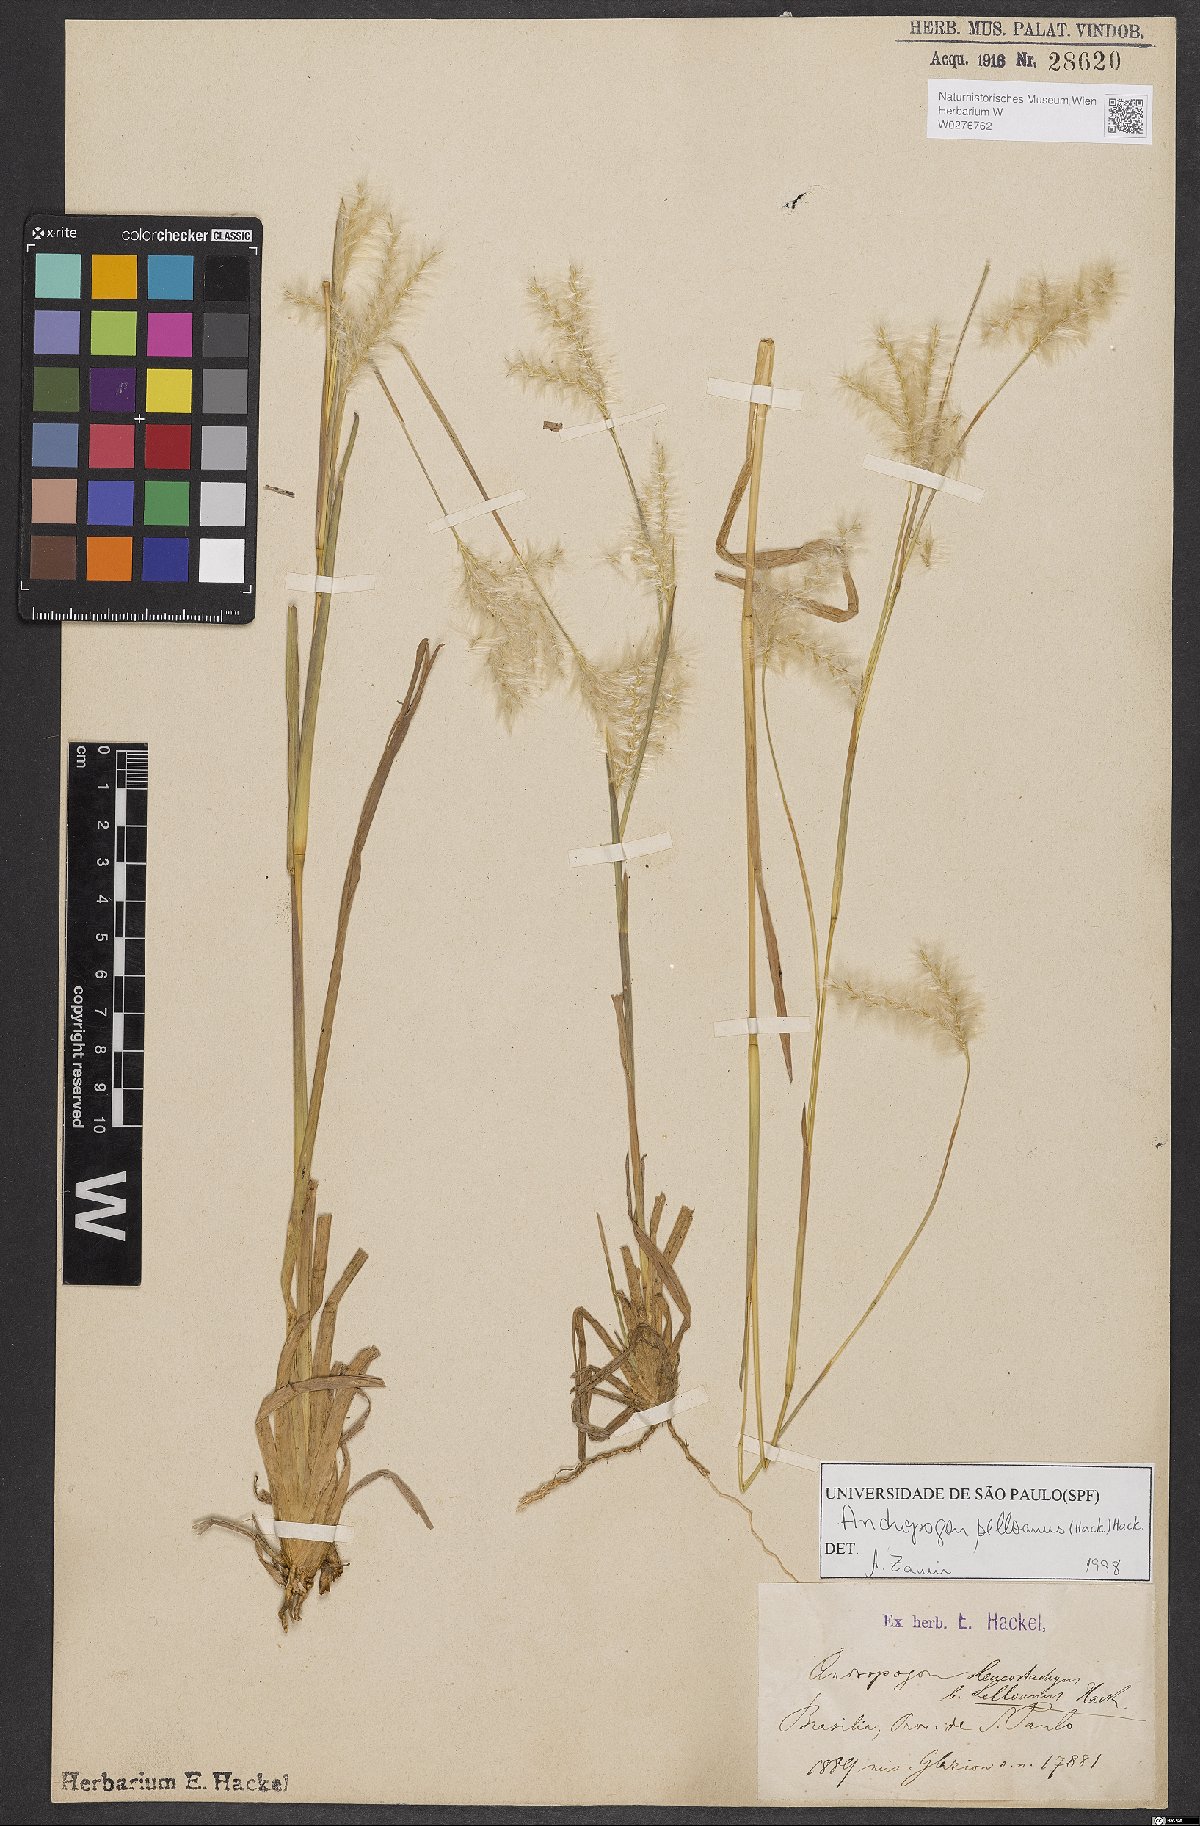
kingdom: Plantae
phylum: Tracheophyta
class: Liliopsida
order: Poales
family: Poaceae
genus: Andropogon
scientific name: Andropogon selloanus
